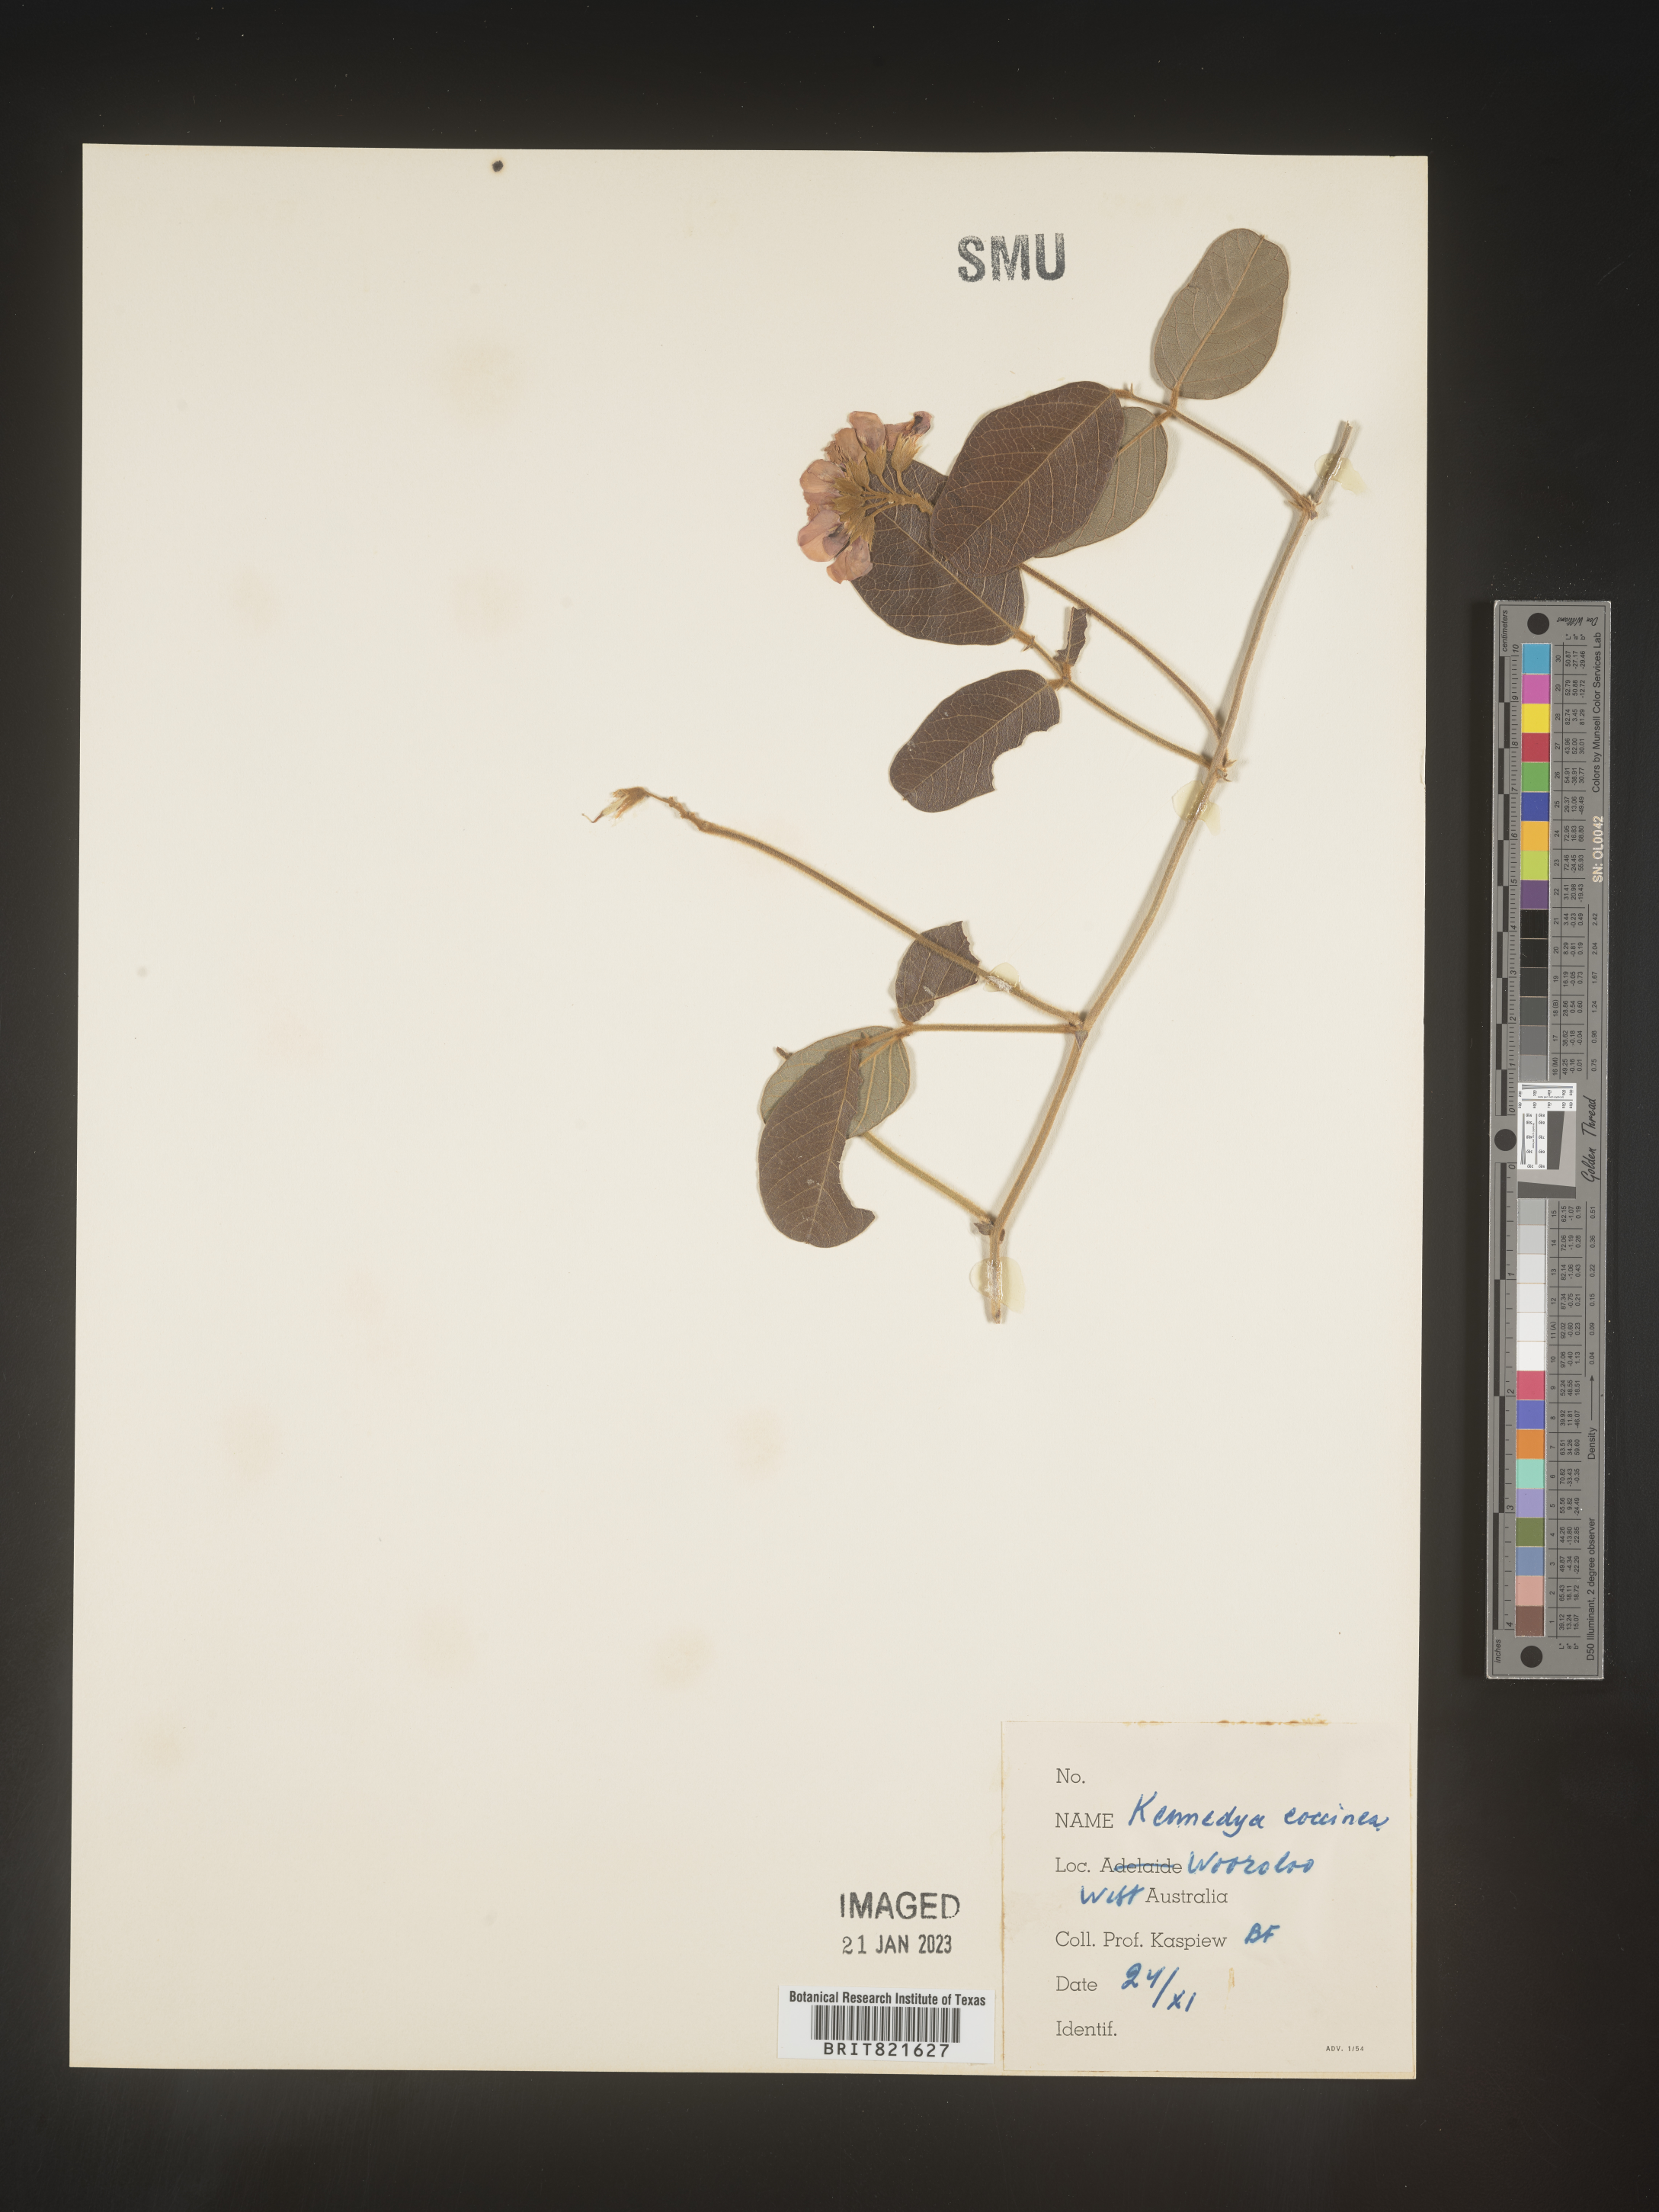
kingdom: Plantae
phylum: Tracheophyta
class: Magnoliopsida
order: Fabales
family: Fabaceae
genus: Kennedya
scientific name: Kennedya
